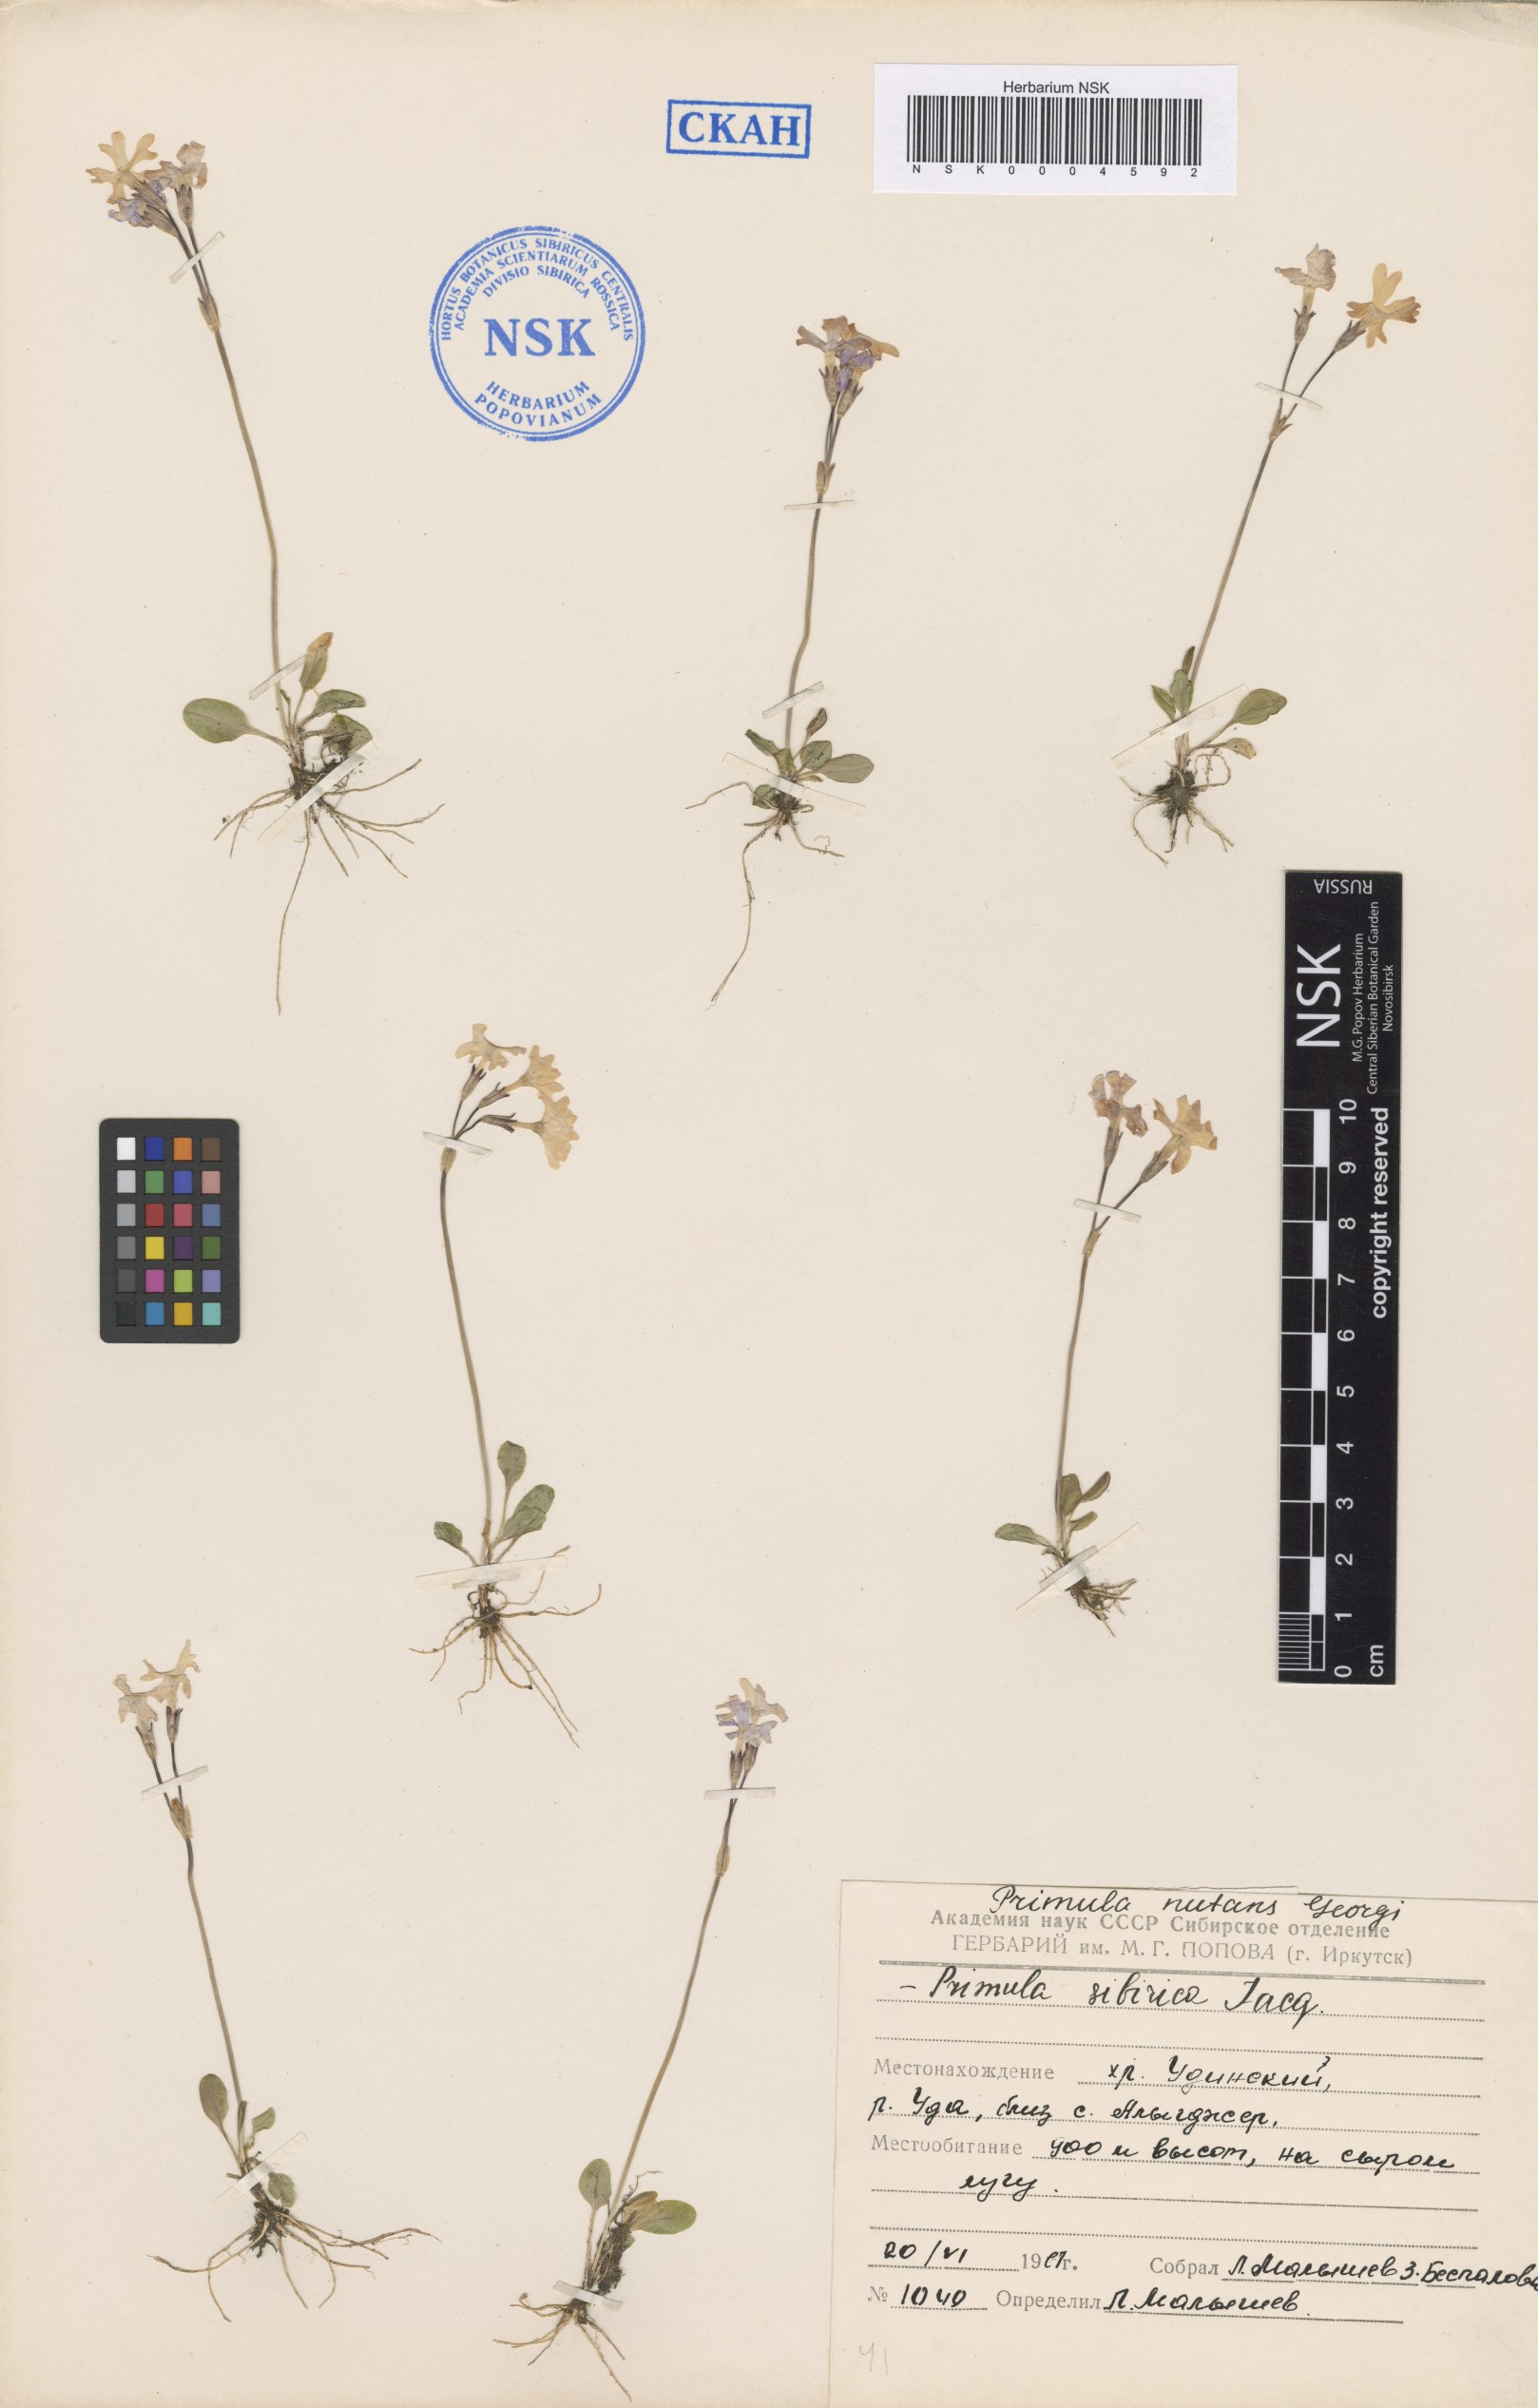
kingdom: Plantae
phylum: Tracheophyta
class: Magnoliopsida
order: Ericales
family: Primulaceae
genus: Primula
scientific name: Primula nutans
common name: Siberian primrose
